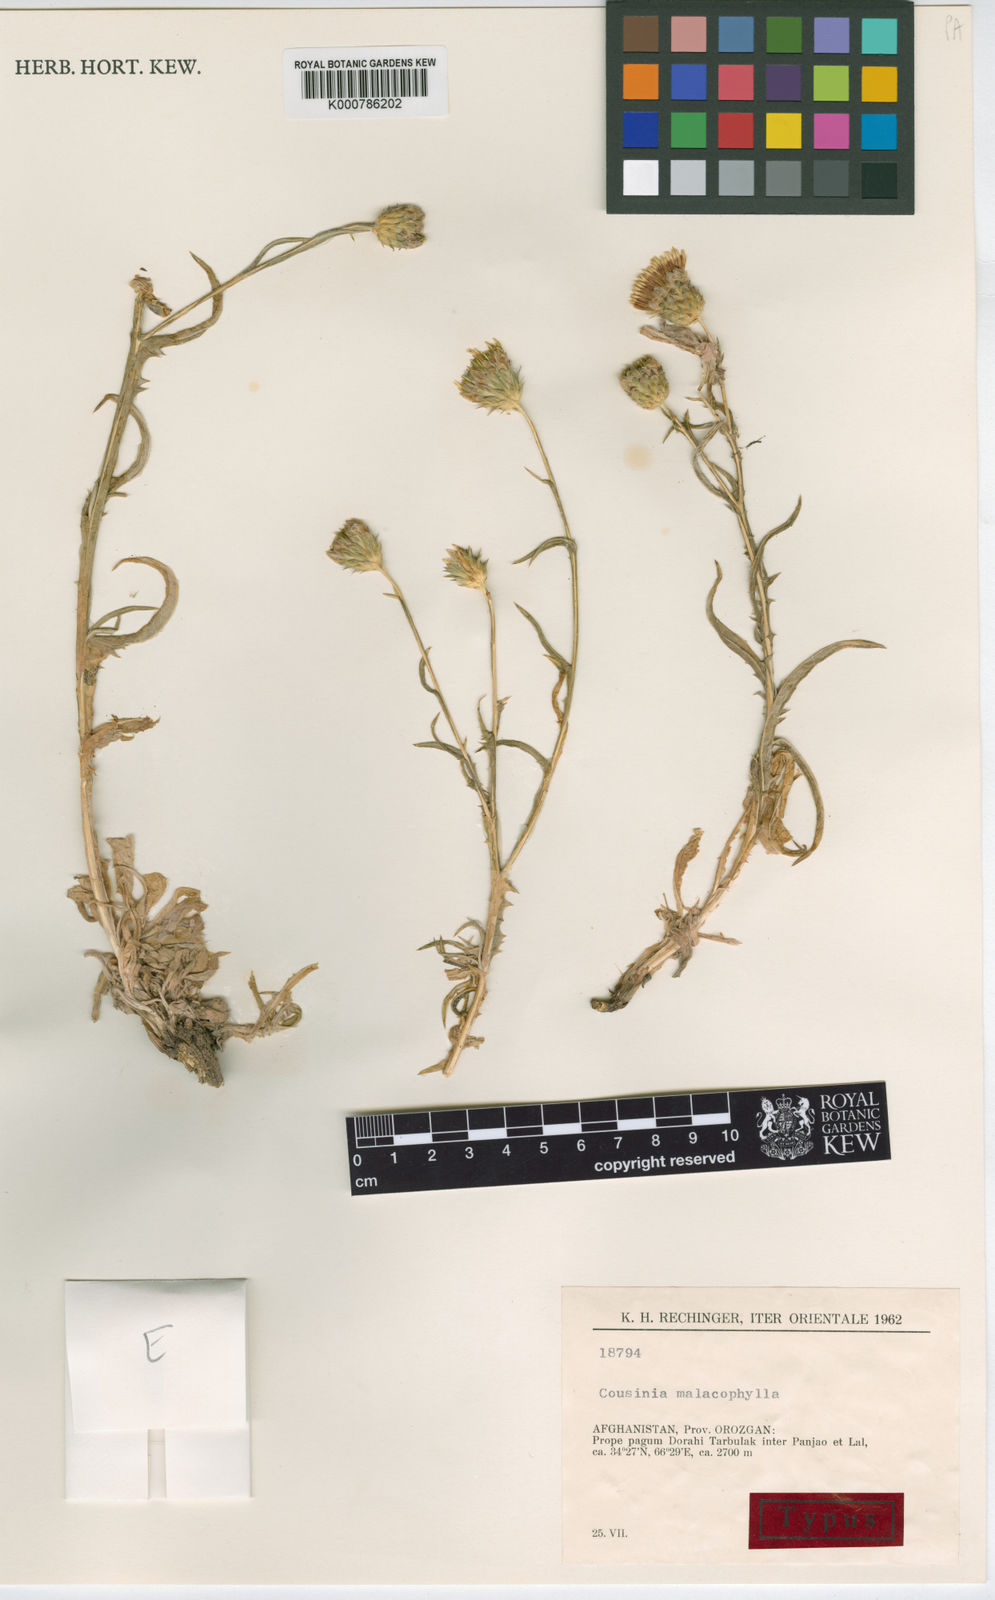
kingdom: Plantae
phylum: Tracheophyta
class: Magnoliopsida
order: Asterales
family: Asteraceae
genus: Cousinia
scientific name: Cousinia malacophylla
